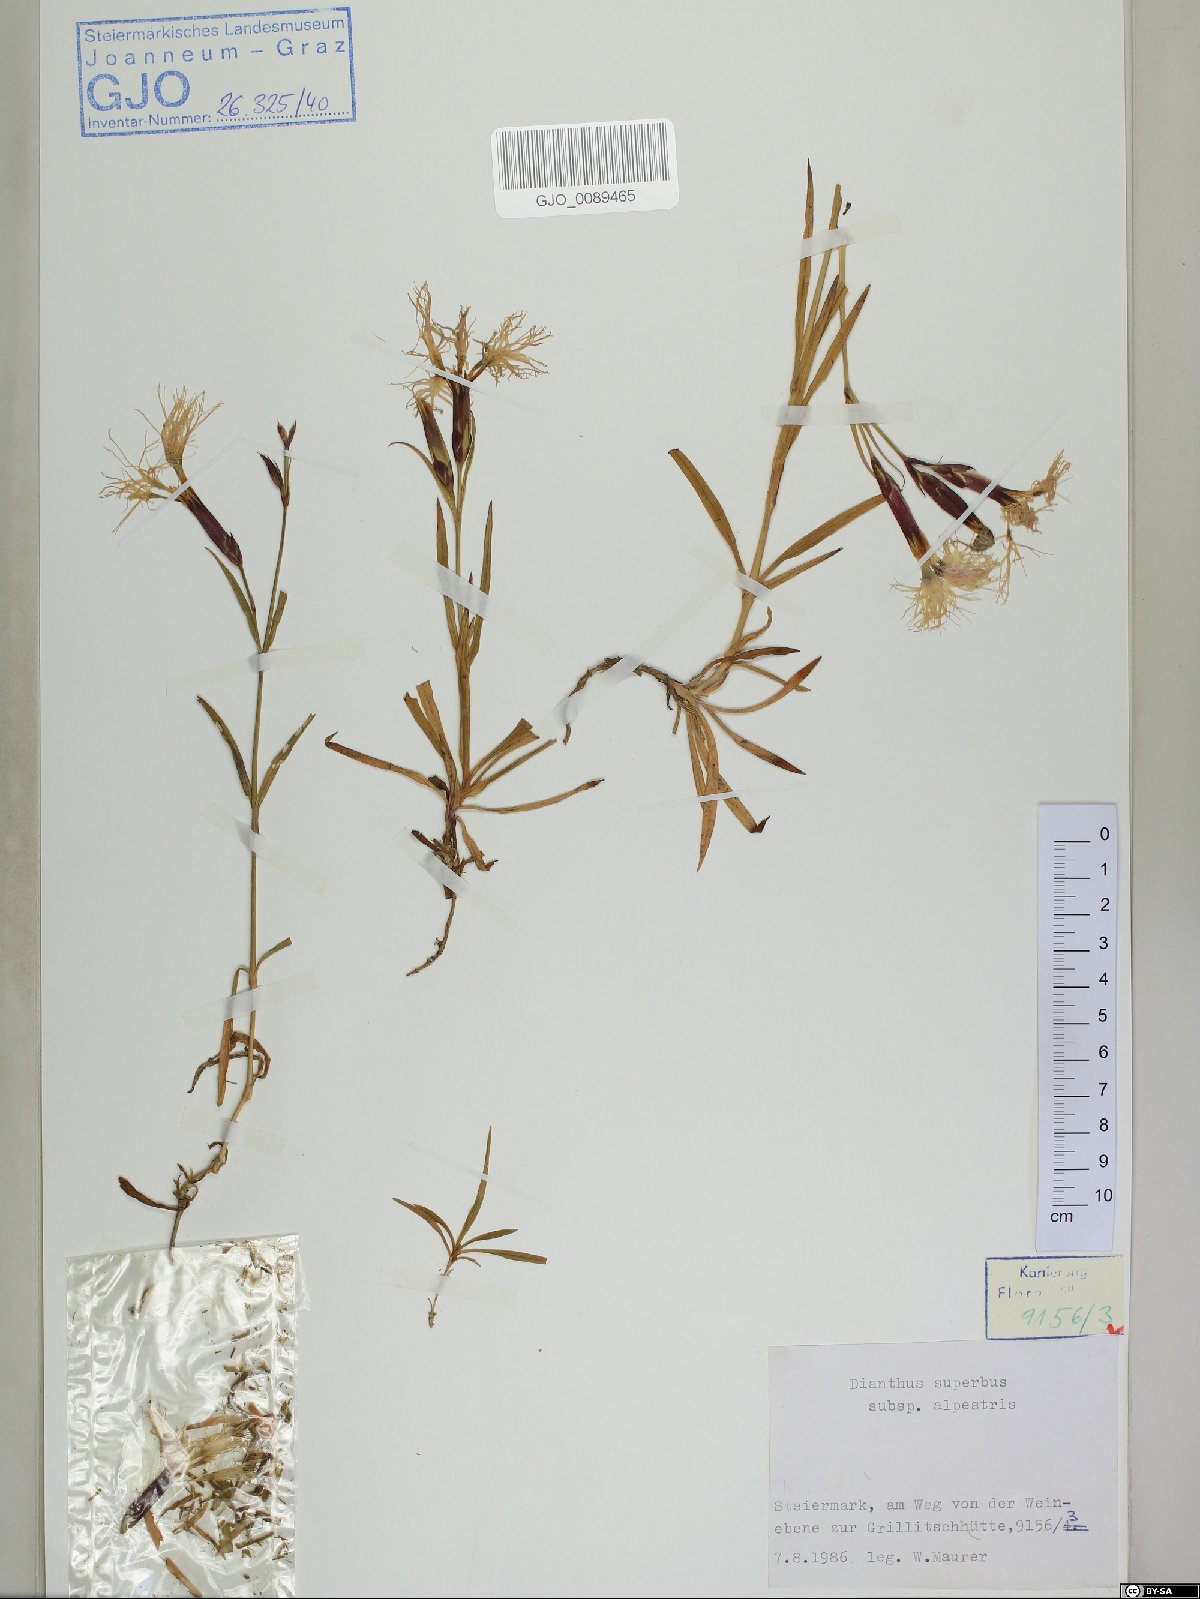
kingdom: Plantae
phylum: Tracheophyta
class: Magnoliopsida
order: Caryophyllales
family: Caryophyllaceae
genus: Dianthus
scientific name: Dianthus superbus
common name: Fringed pink
